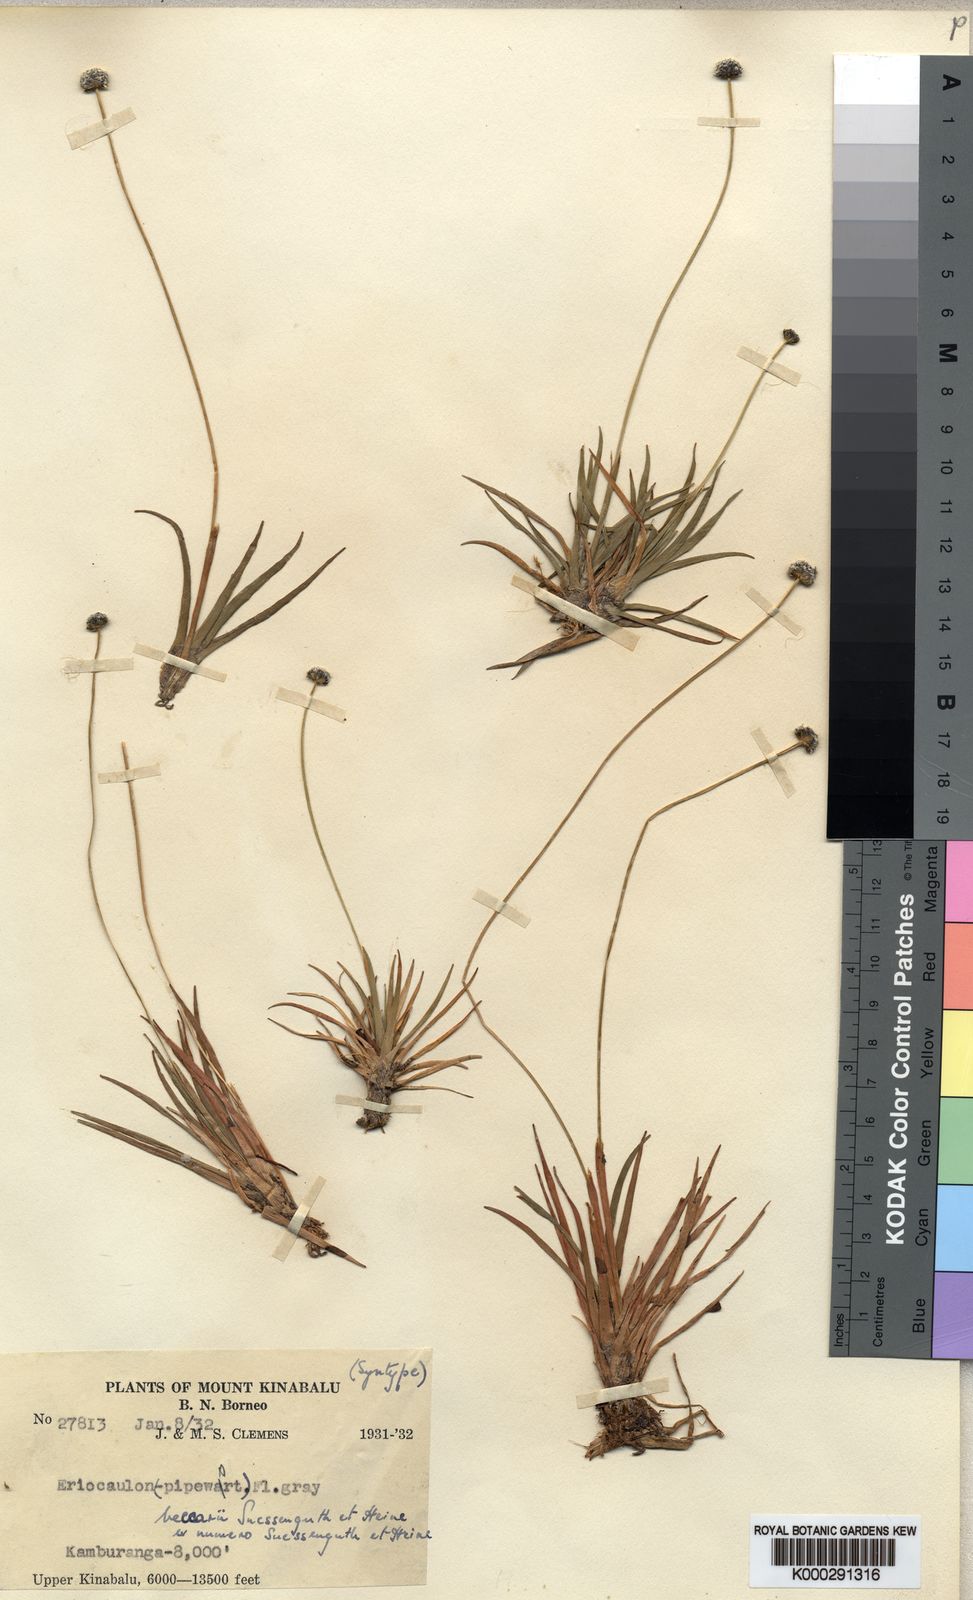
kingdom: Plantae
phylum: Tracheophyta
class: Liliopsida
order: Poales
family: Eriocaulaceae
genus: Eriocaulon
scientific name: Eriocaulon hookerianum
